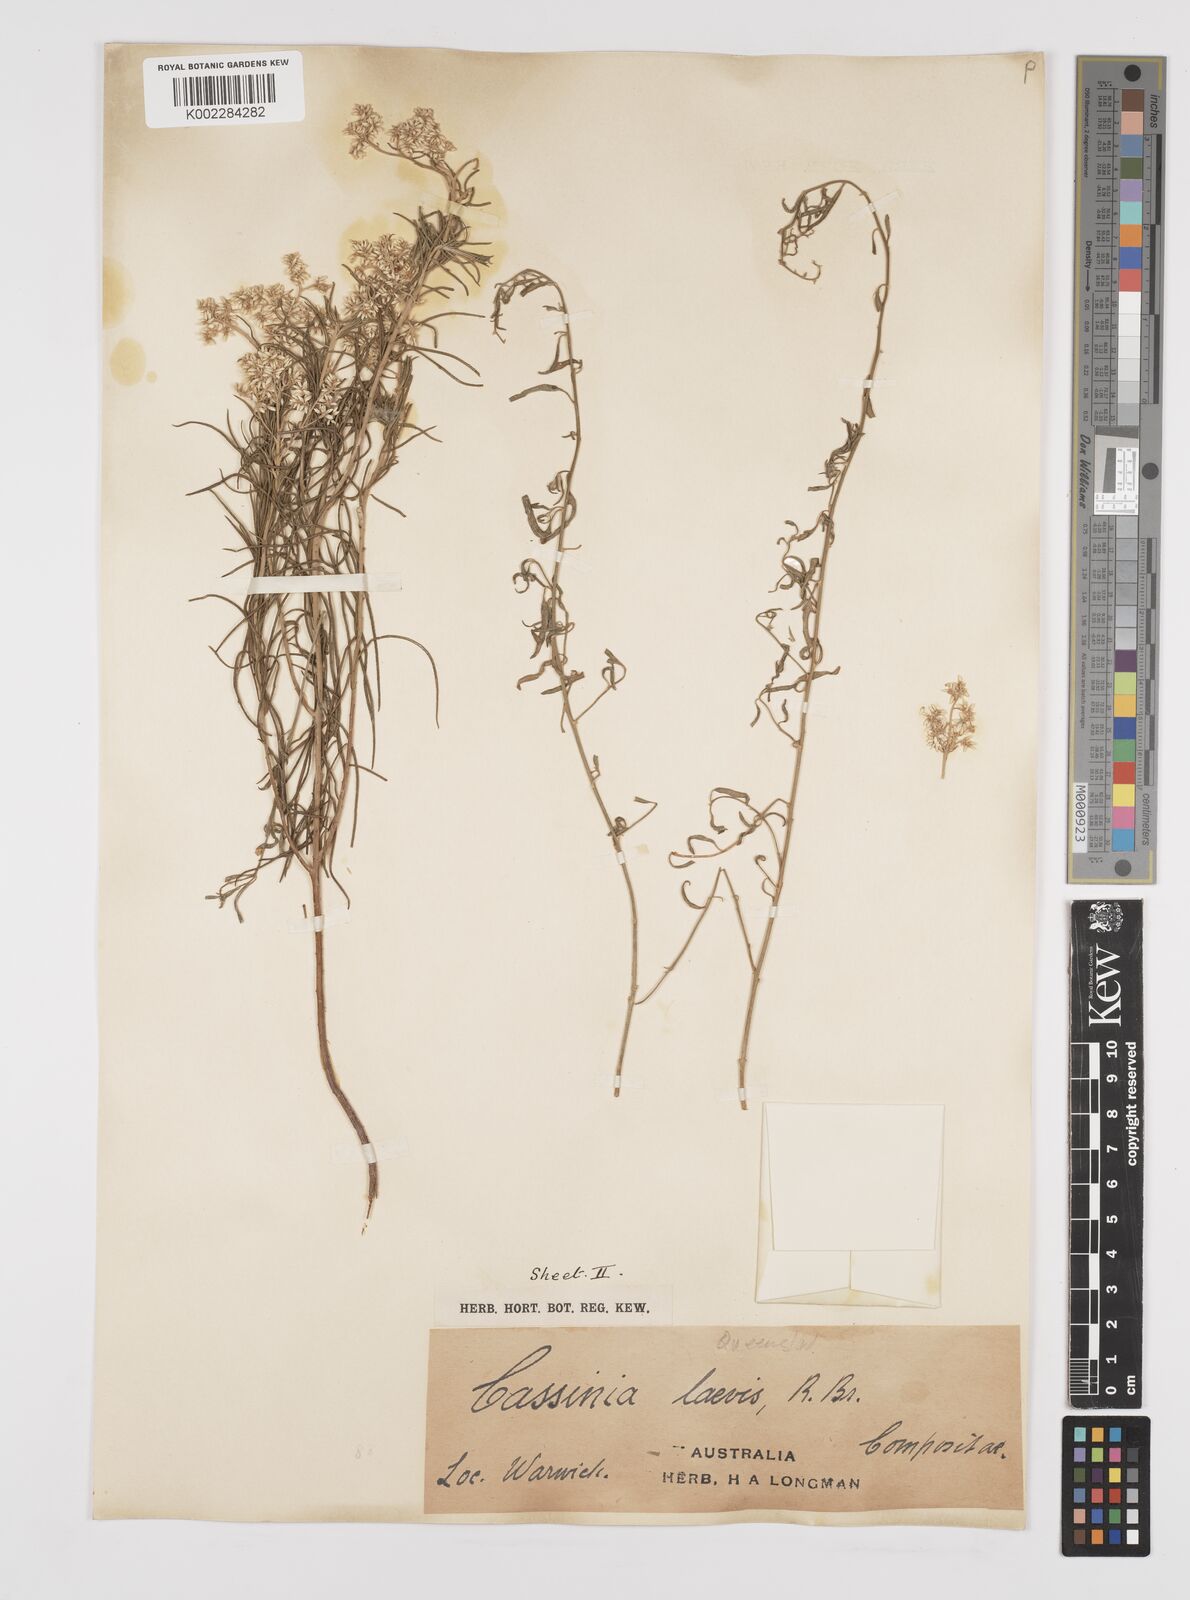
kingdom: Plantae
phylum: Tracheophyta
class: Magnoliopsida
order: Asterales
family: Asteraceae
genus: Cassinia
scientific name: Cassinia laevis
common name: Coughbush
